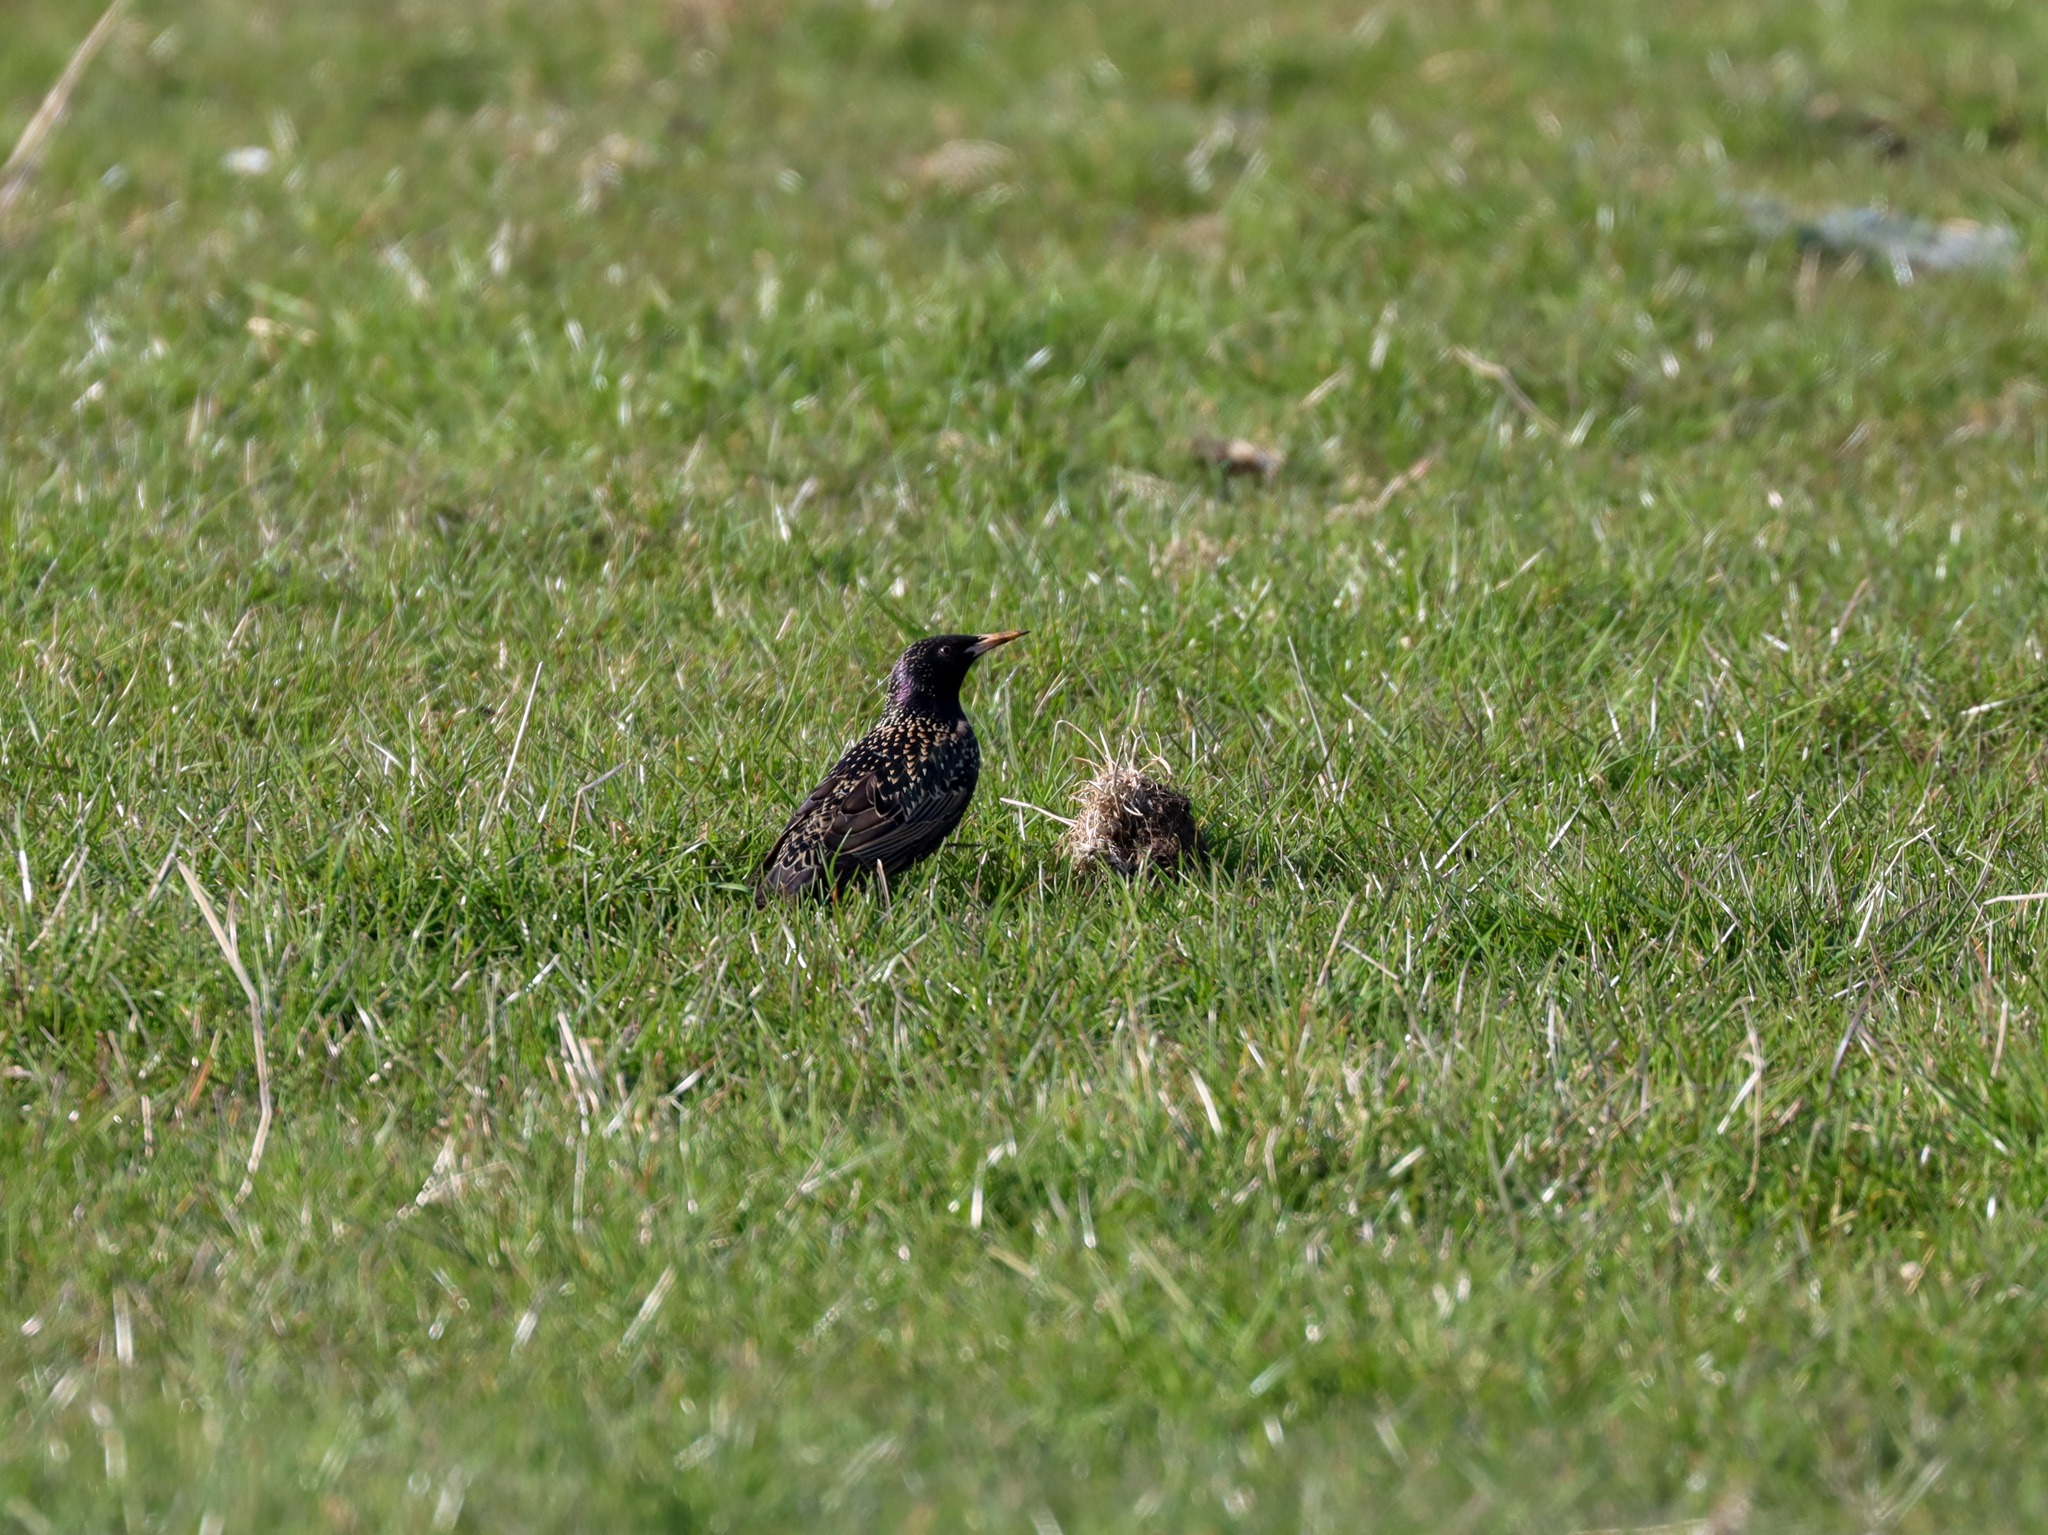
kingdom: Animalia
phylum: Chordata
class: Aves
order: Passeriformes
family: Sturnidae
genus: Sturnus
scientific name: Sturnus vulgaris
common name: Stær
